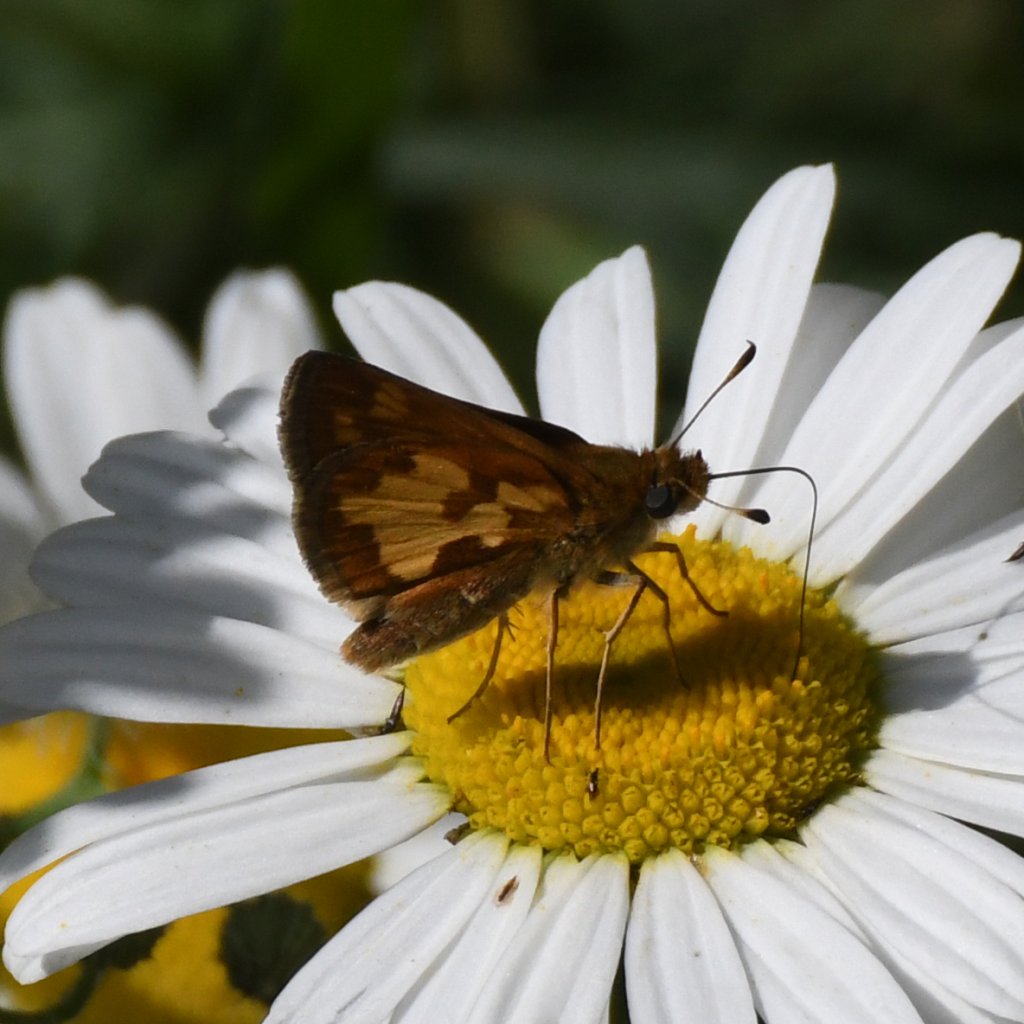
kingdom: Animalia
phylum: Arthropoda
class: Insecta
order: Lepidoptera
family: Hesperiidae
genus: Polites
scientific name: Polites coras
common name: Peck's Skipper
